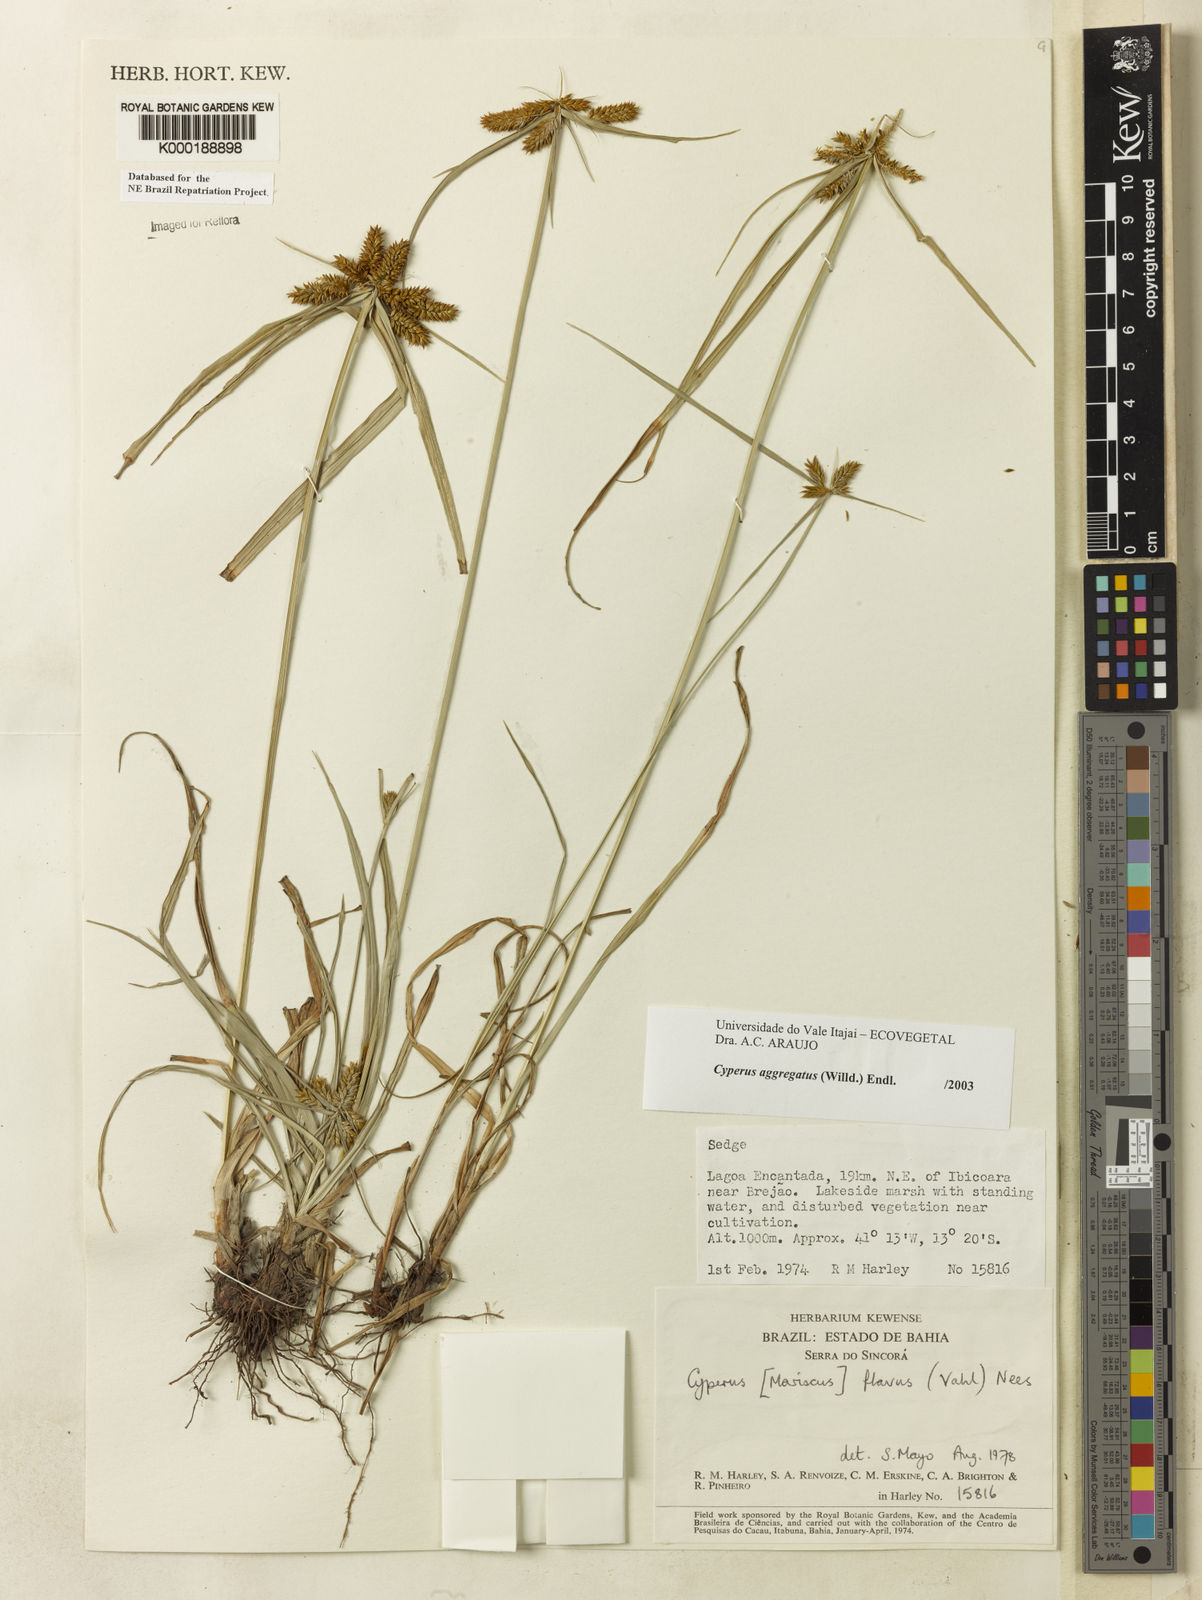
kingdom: Plantae
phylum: Tracheophyta
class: Liliopsida
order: Poales
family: Cyperaceae
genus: Cyperus
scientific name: Cyperus aggregatus
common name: Inflatedscale flatsedge
